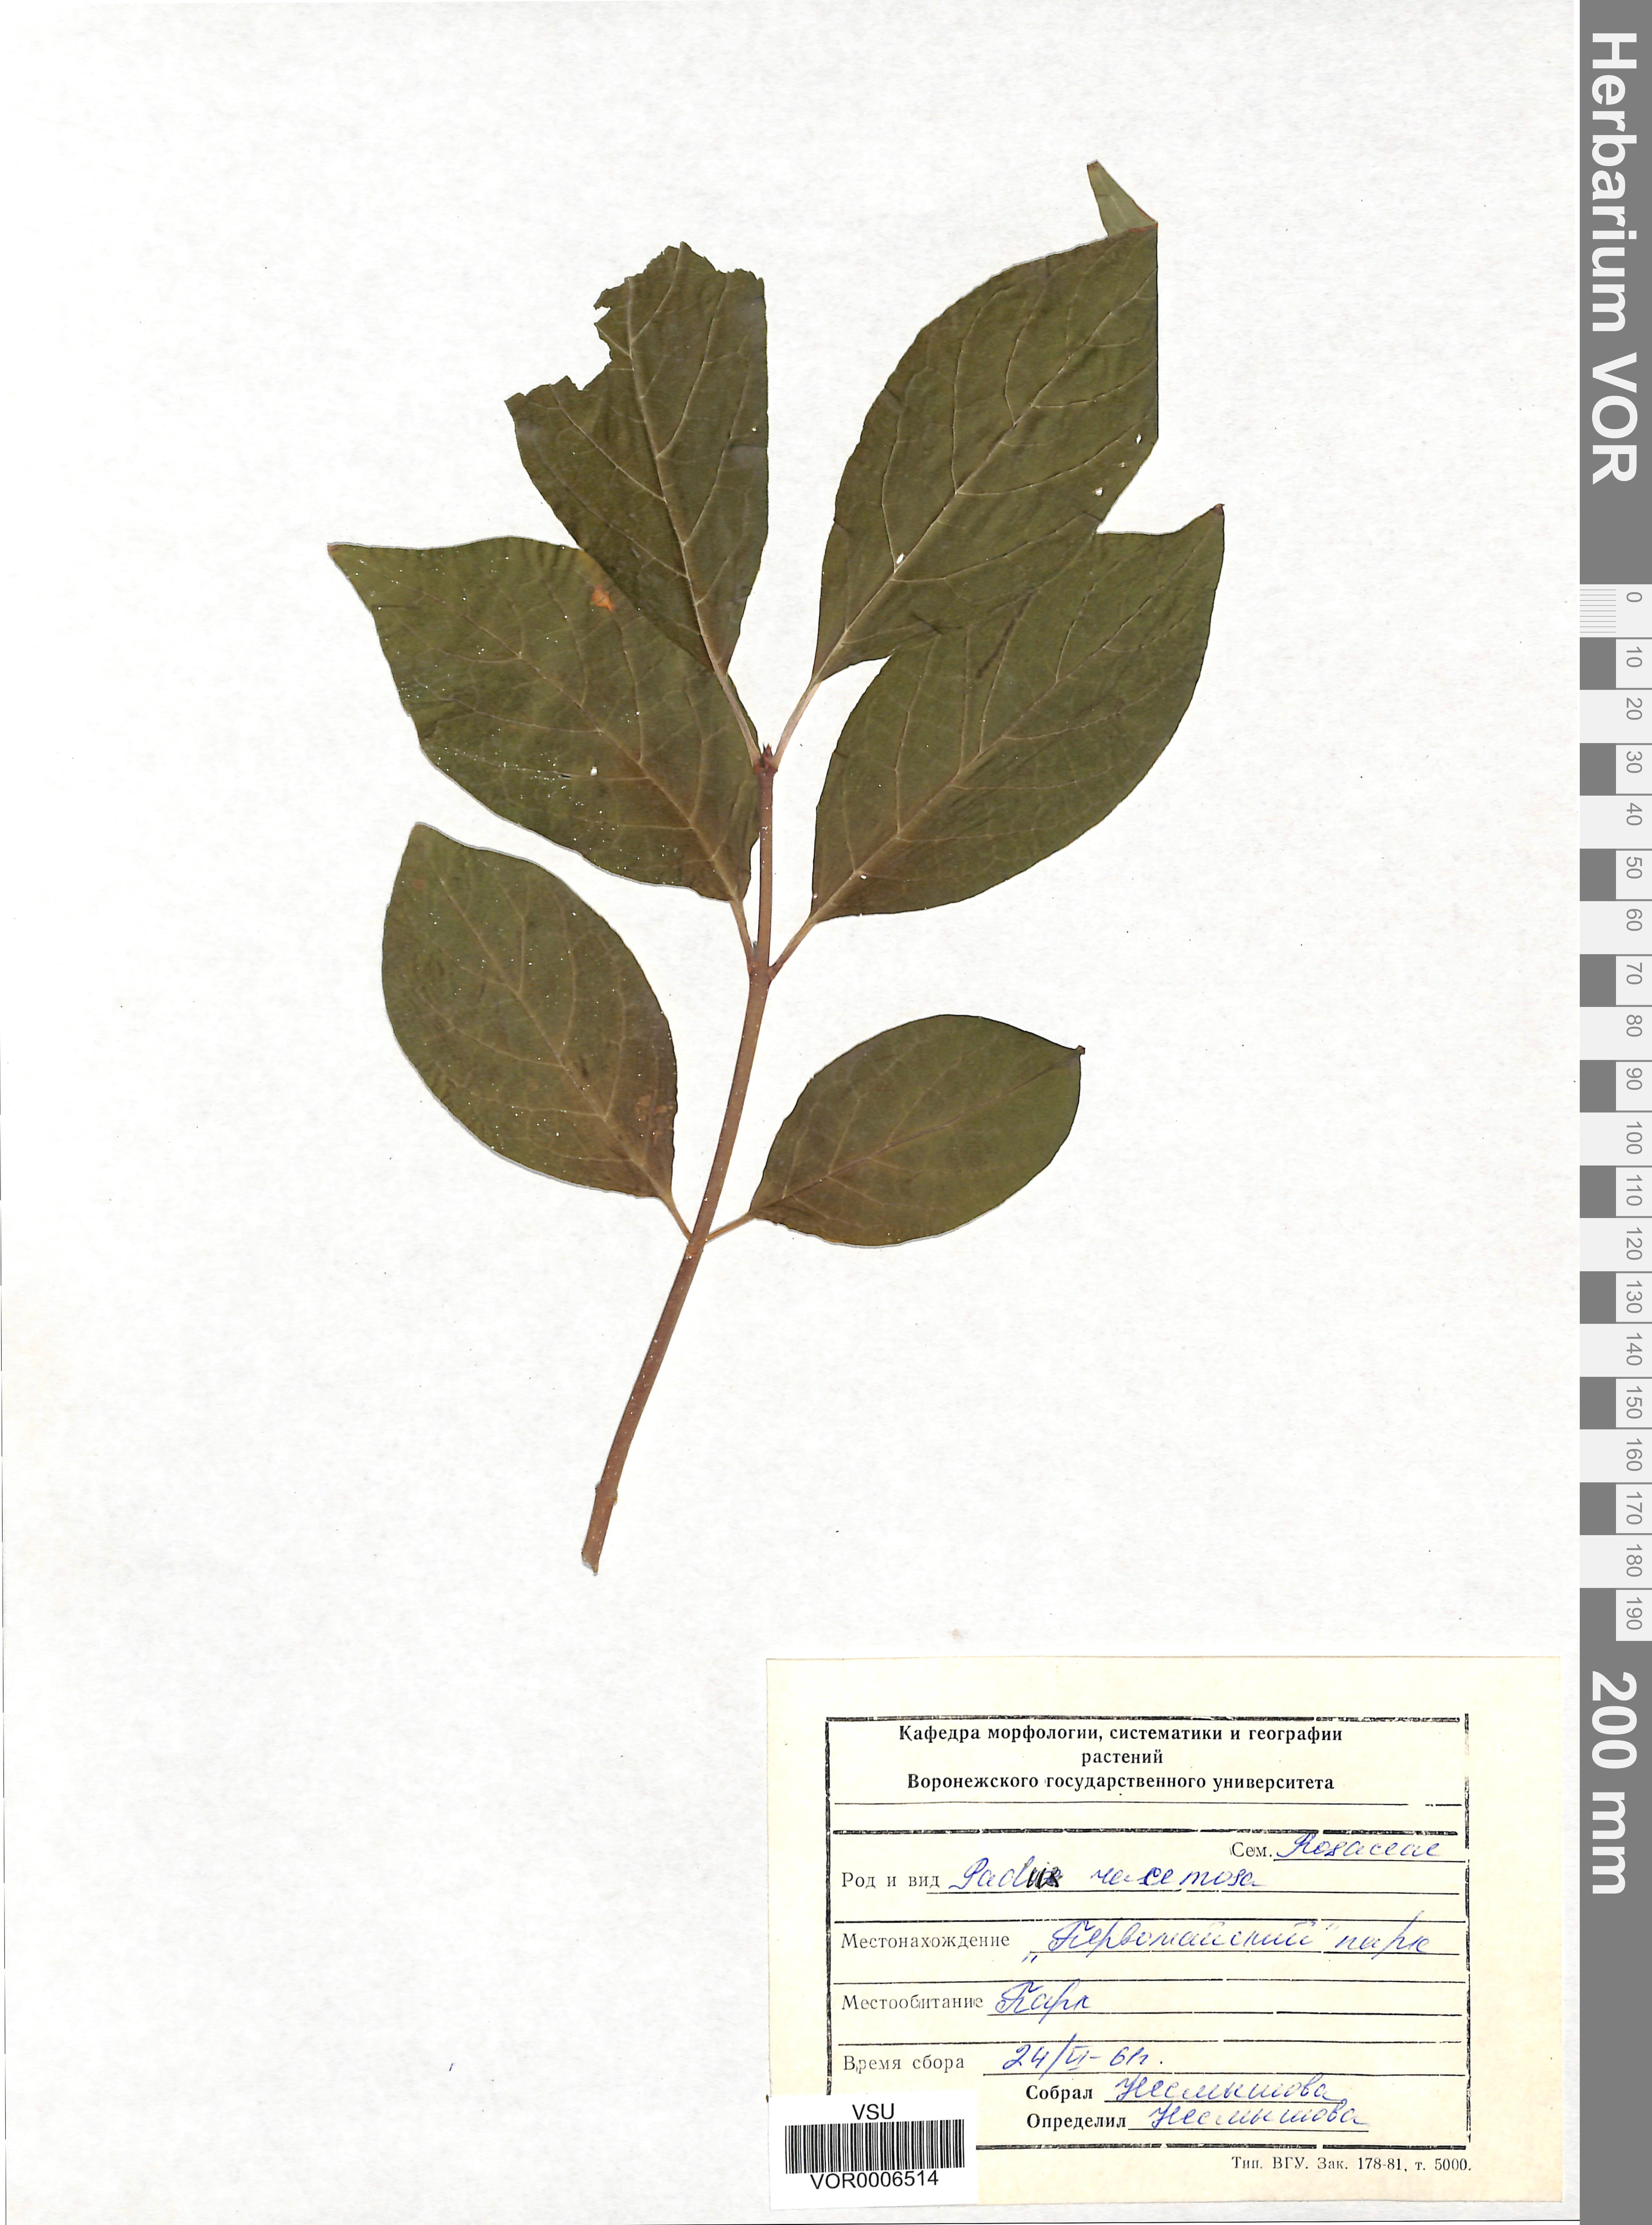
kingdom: Plantae
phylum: Tracheophyta
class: Magnoliopsida
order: Rosales
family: Rosaceae
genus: Prunus
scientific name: Prunus padus
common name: Bird cherry
